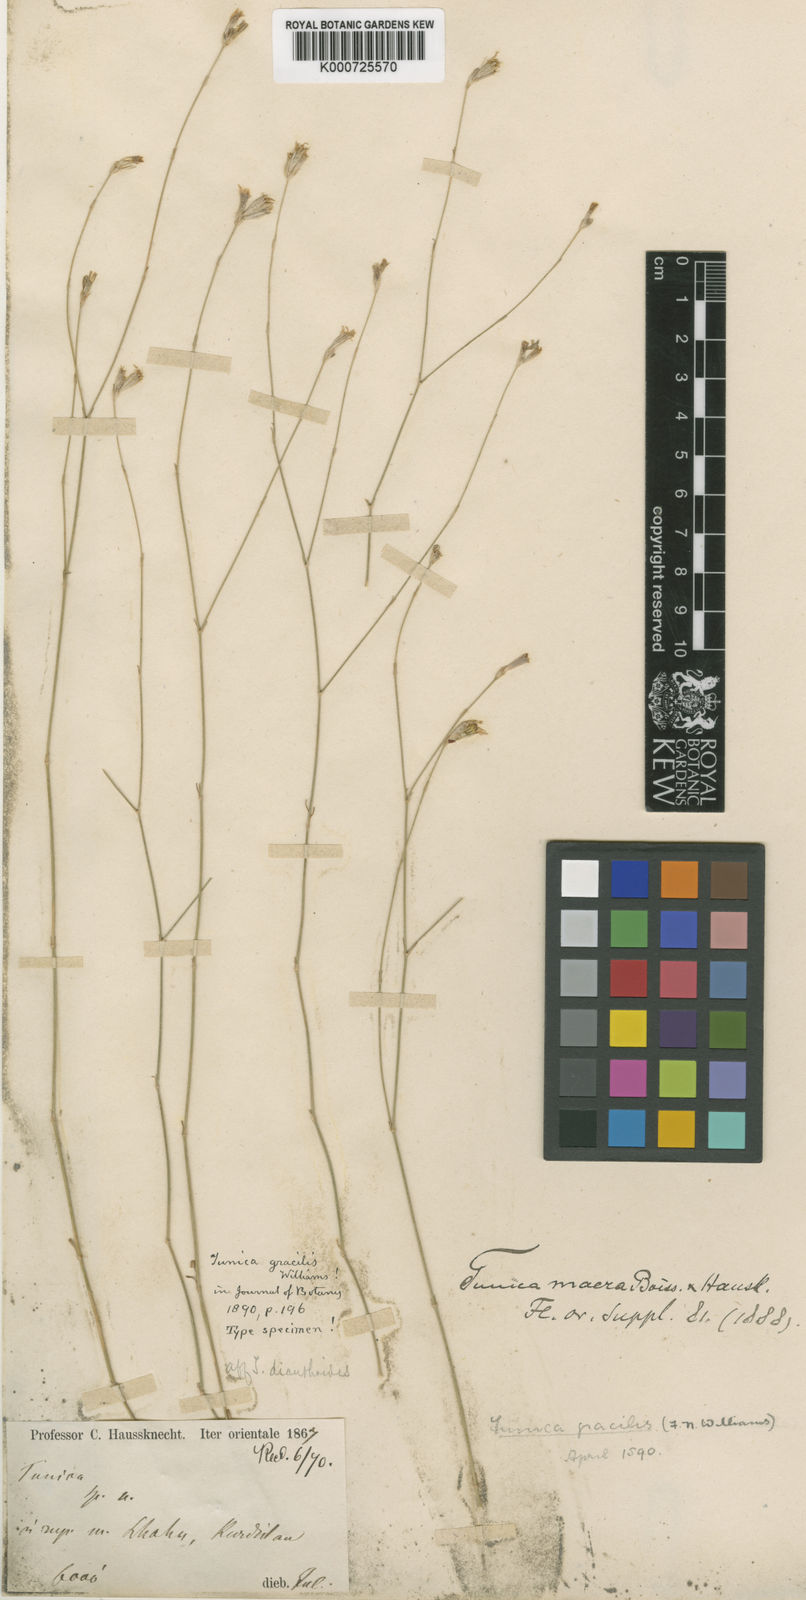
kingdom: Plantae
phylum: Tracheophyta
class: Magnoliopsida
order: Caryophyllales
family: Caryophyllaceae
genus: Petrorhagia
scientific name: Petrorhagia macra
